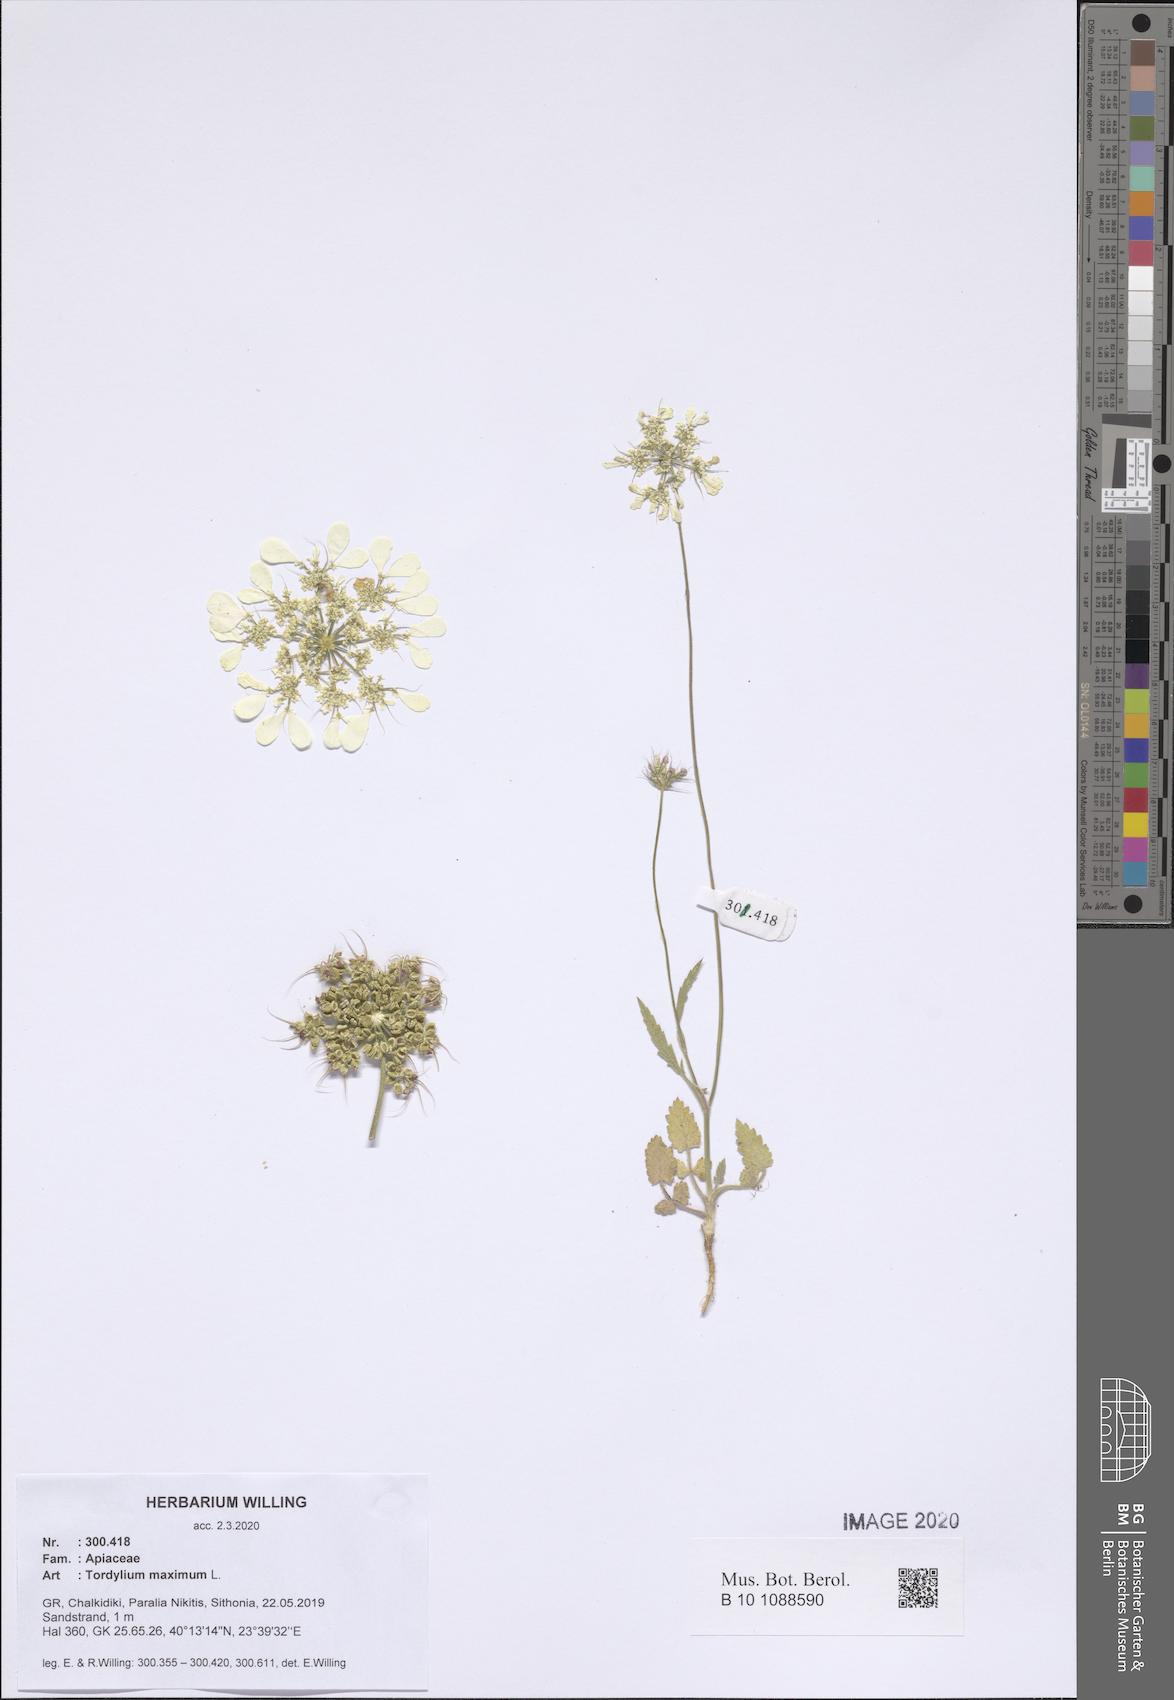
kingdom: Plantae
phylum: Tracheophyta
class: Magnoliopsida
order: Apiales
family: Apiaceae
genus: Tordylium
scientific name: Tordylium maximum
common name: Hartwort
